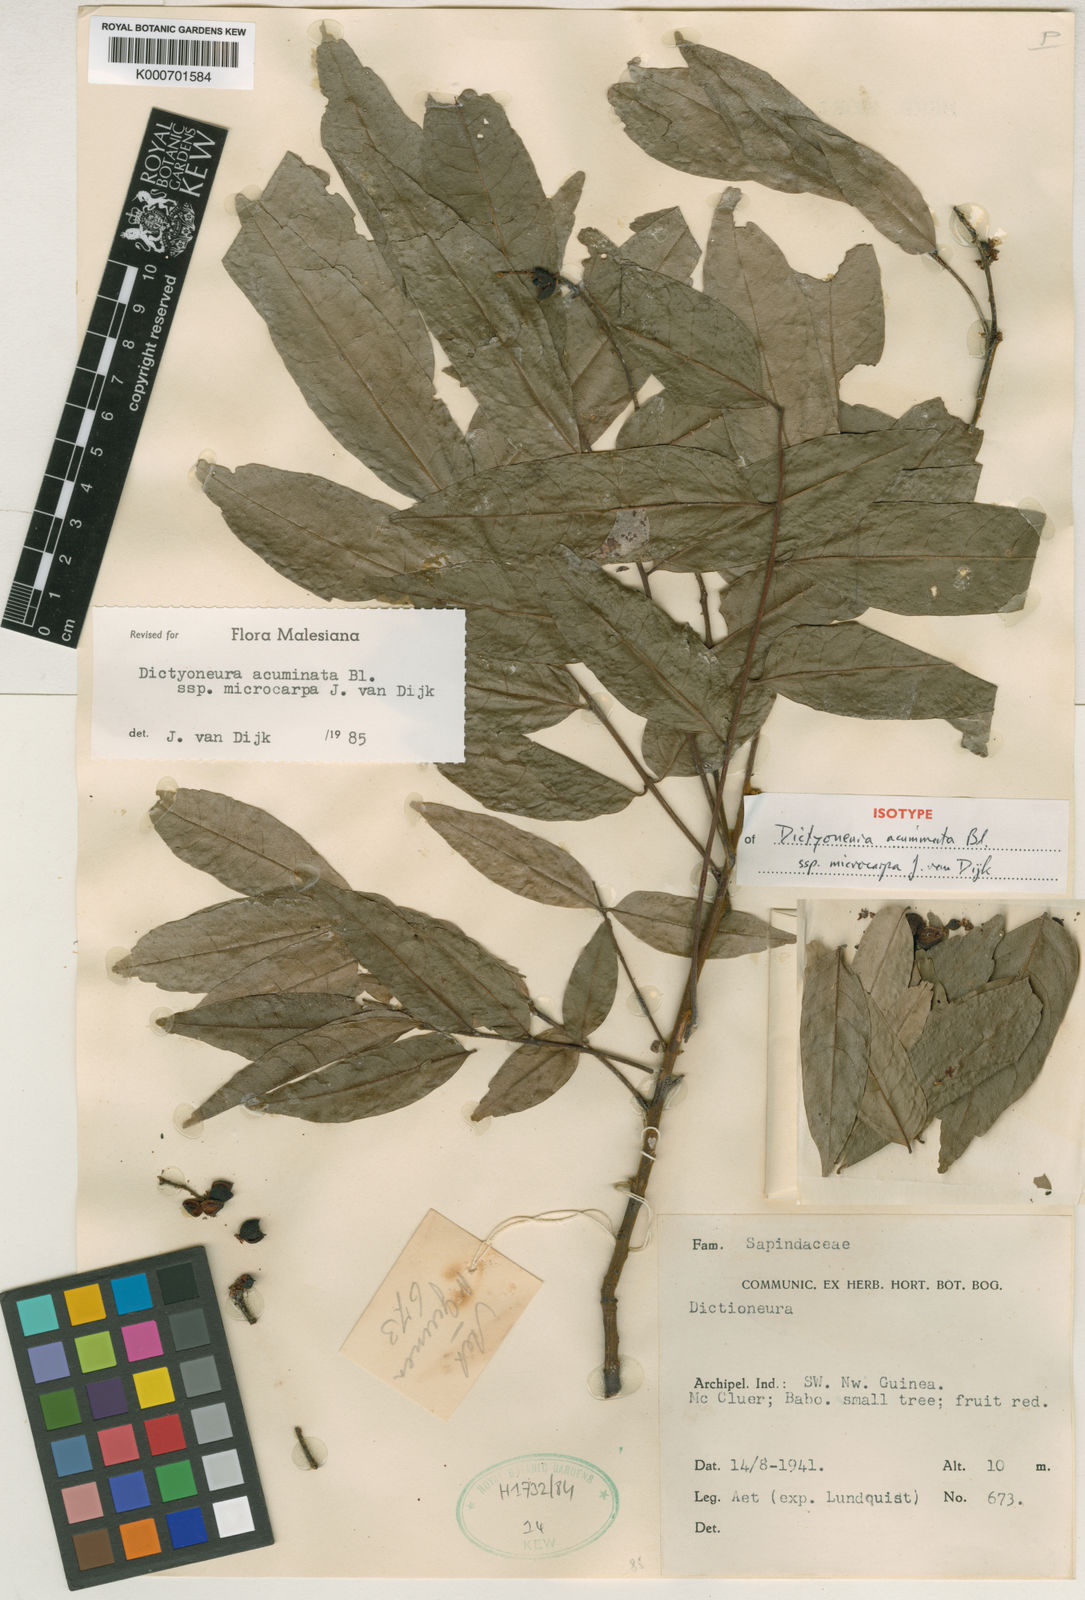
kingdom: Plantae
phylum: Tracheophyta
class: Magnoliopsida
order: Sapindales
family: Sapindaceae
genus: Dictyoneura
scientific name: Dictyoneura acuminata
